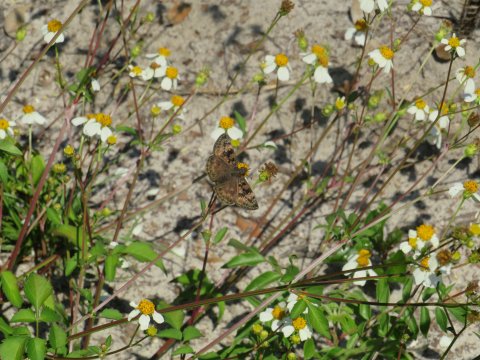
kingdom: Animalia
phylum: Arthropoda
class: Insecta
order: Lepidoptera
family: Hesperiidae
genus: Gesta
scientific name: Gesta
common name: Horace's Duskywing
